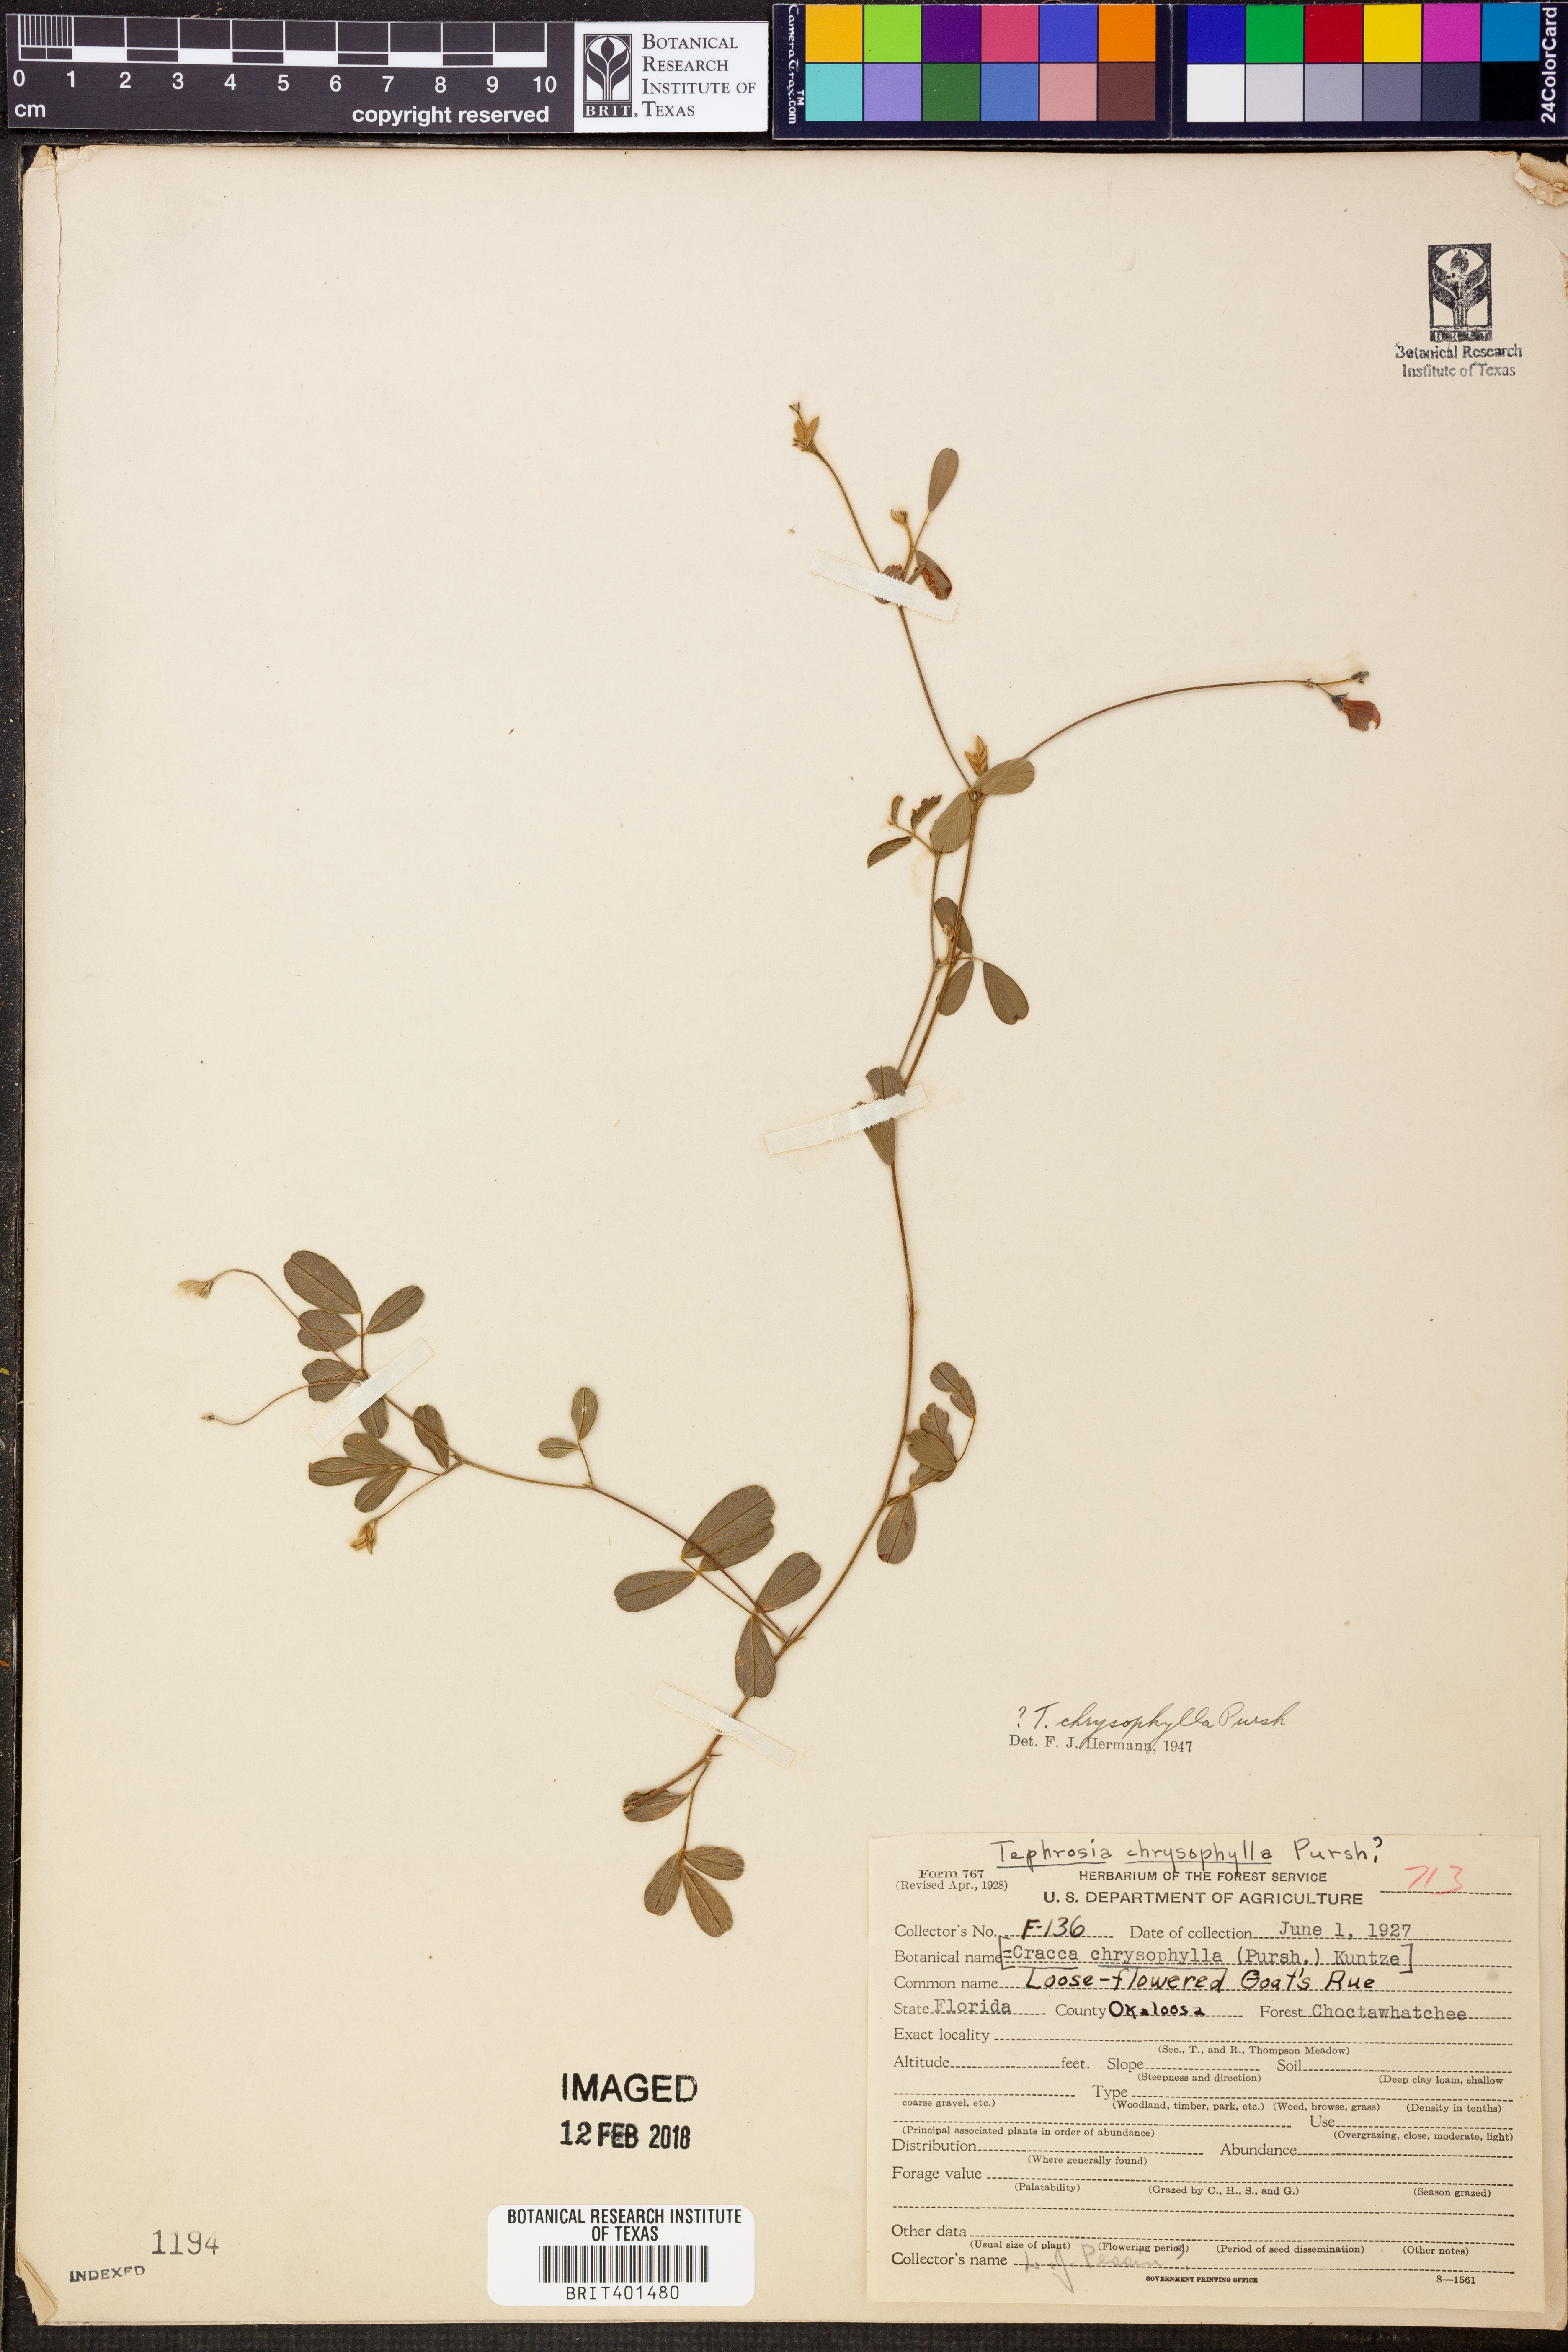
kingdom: Plantae
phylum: Tracheophyta
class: Magnoliopsida
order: Fabales
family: Fabaceae
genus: Tephrosia
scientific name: Tephrosia chrysophylla
